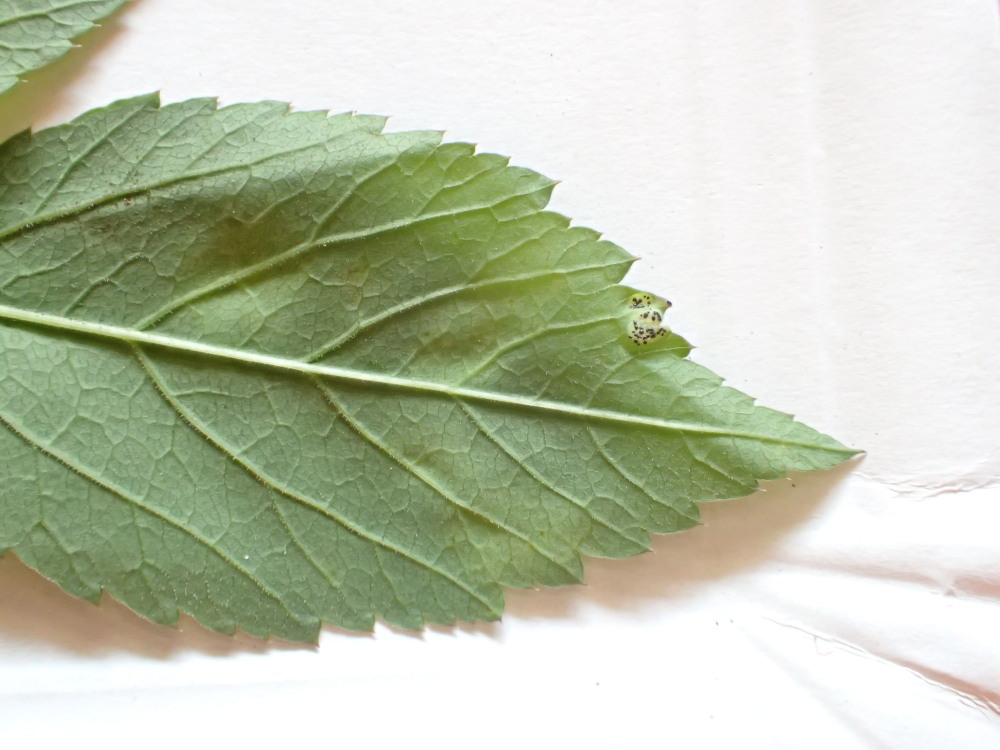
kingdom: Fungi
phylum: Basidiomycota
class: Pucciniomycetes
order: Pucciniales
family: Pucciniaceae
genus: Puccinia
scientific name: Puccinia
